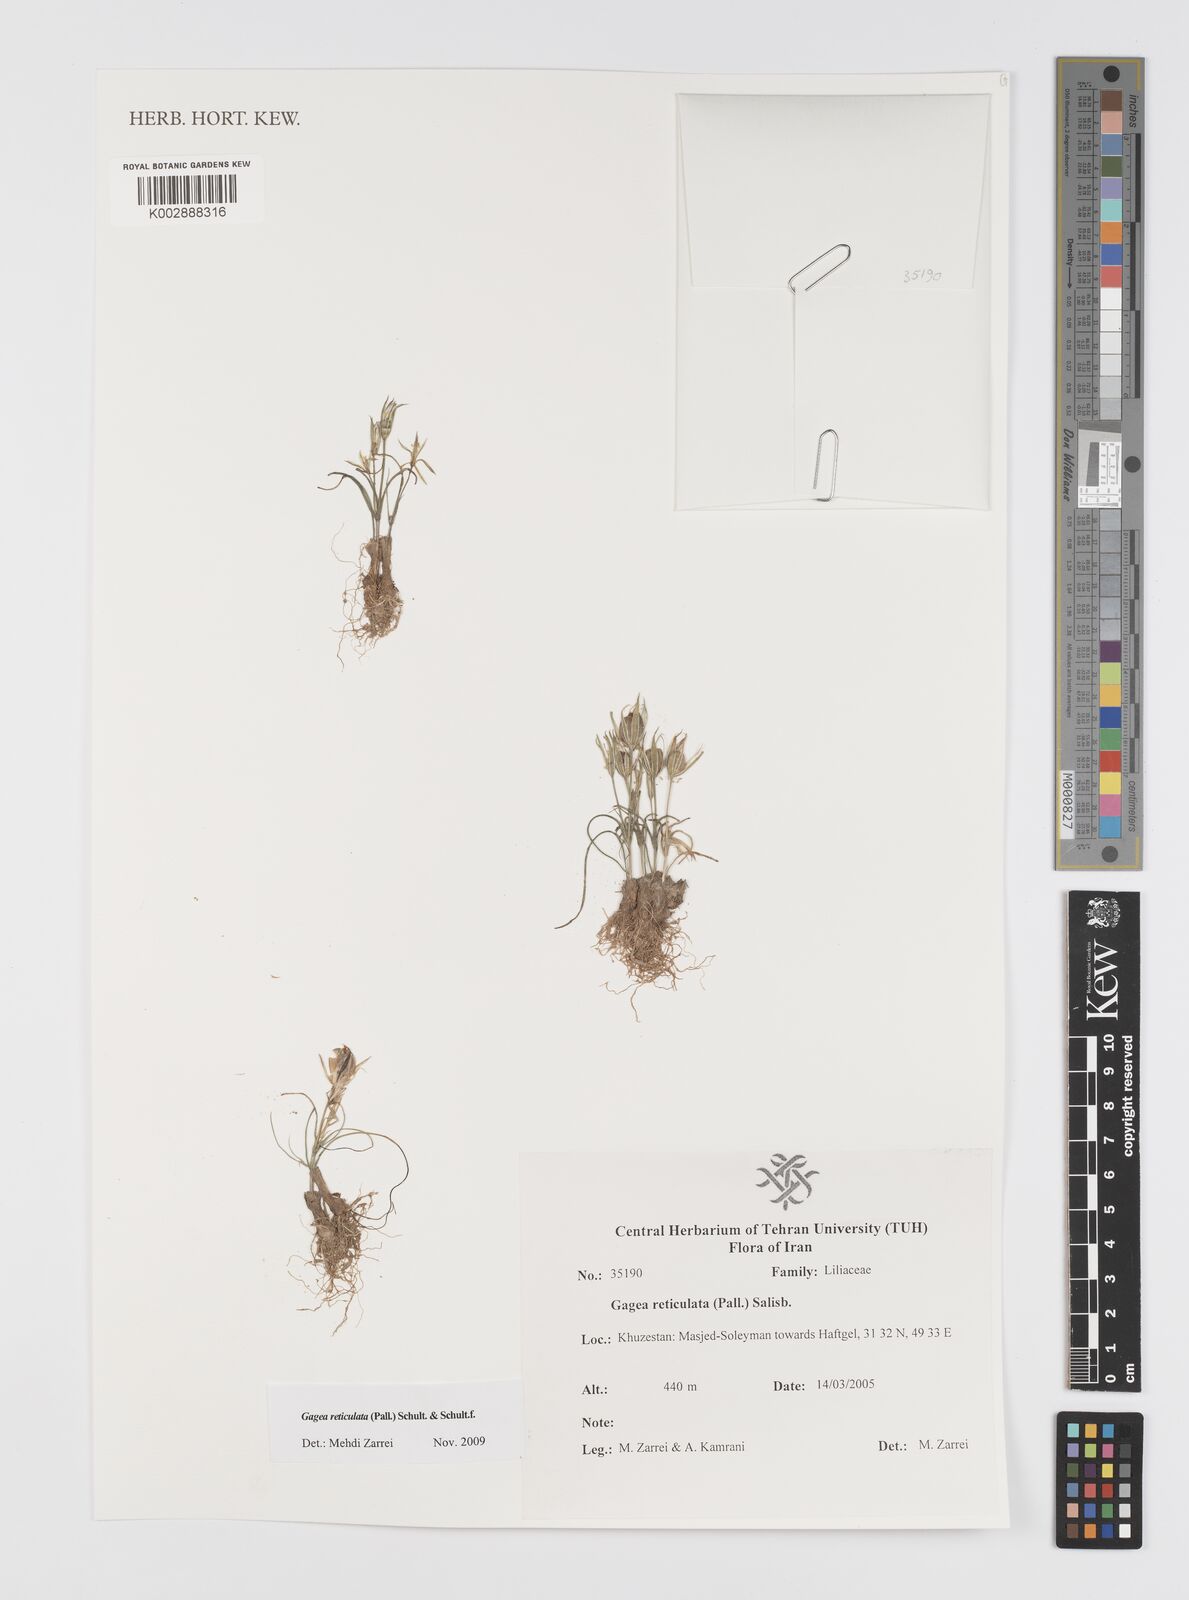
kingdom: Plantae
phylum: Tracheophyta
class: Liliopsida
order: Liliales
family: Liliaceae
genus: Gagea
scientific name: Gagea reticulata
